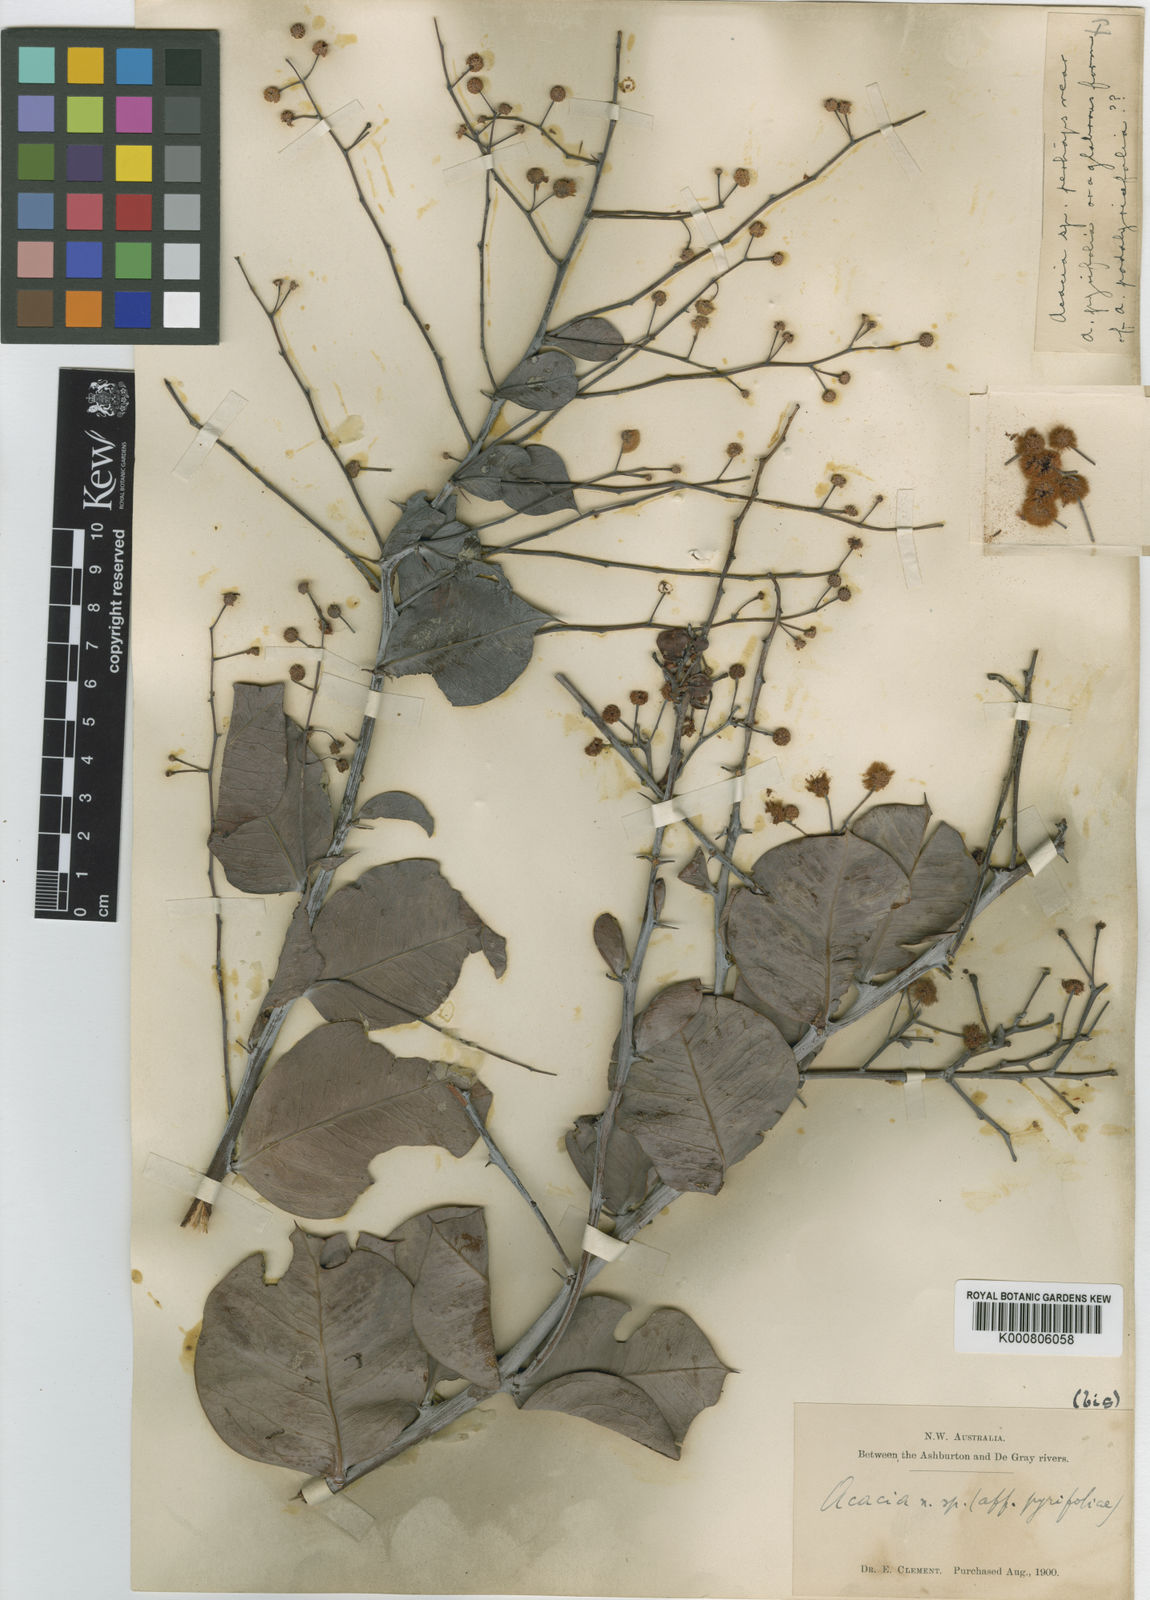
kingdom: Plantae
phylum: Tracheophyta
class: Magnoliopsida
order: Fabales
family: Fabaceae
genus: Acacia
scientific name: Acacia pyrifolia
